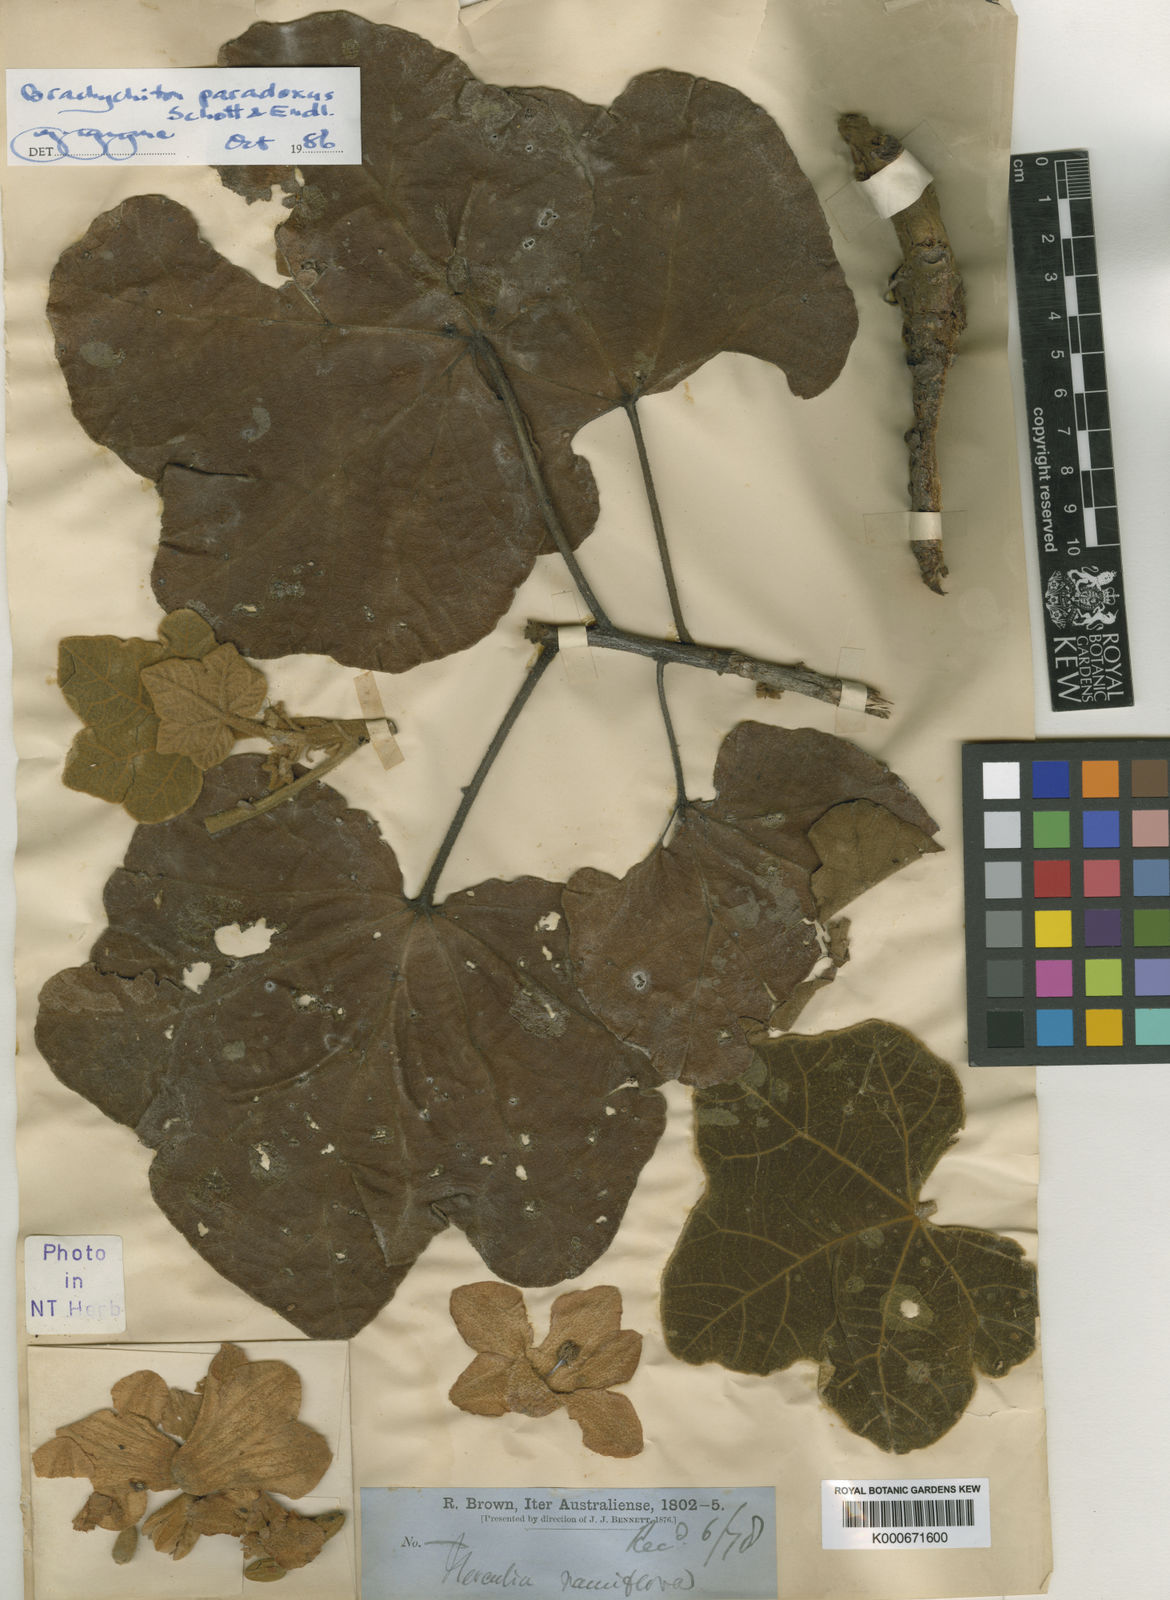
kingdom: Plantae
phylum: Tracheophyta
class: Magnoliopsida
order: Malvales
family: Malvaceae
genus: Brachychiton
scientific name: Brachychiton paradoxus
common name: Red-flower kurrajong
